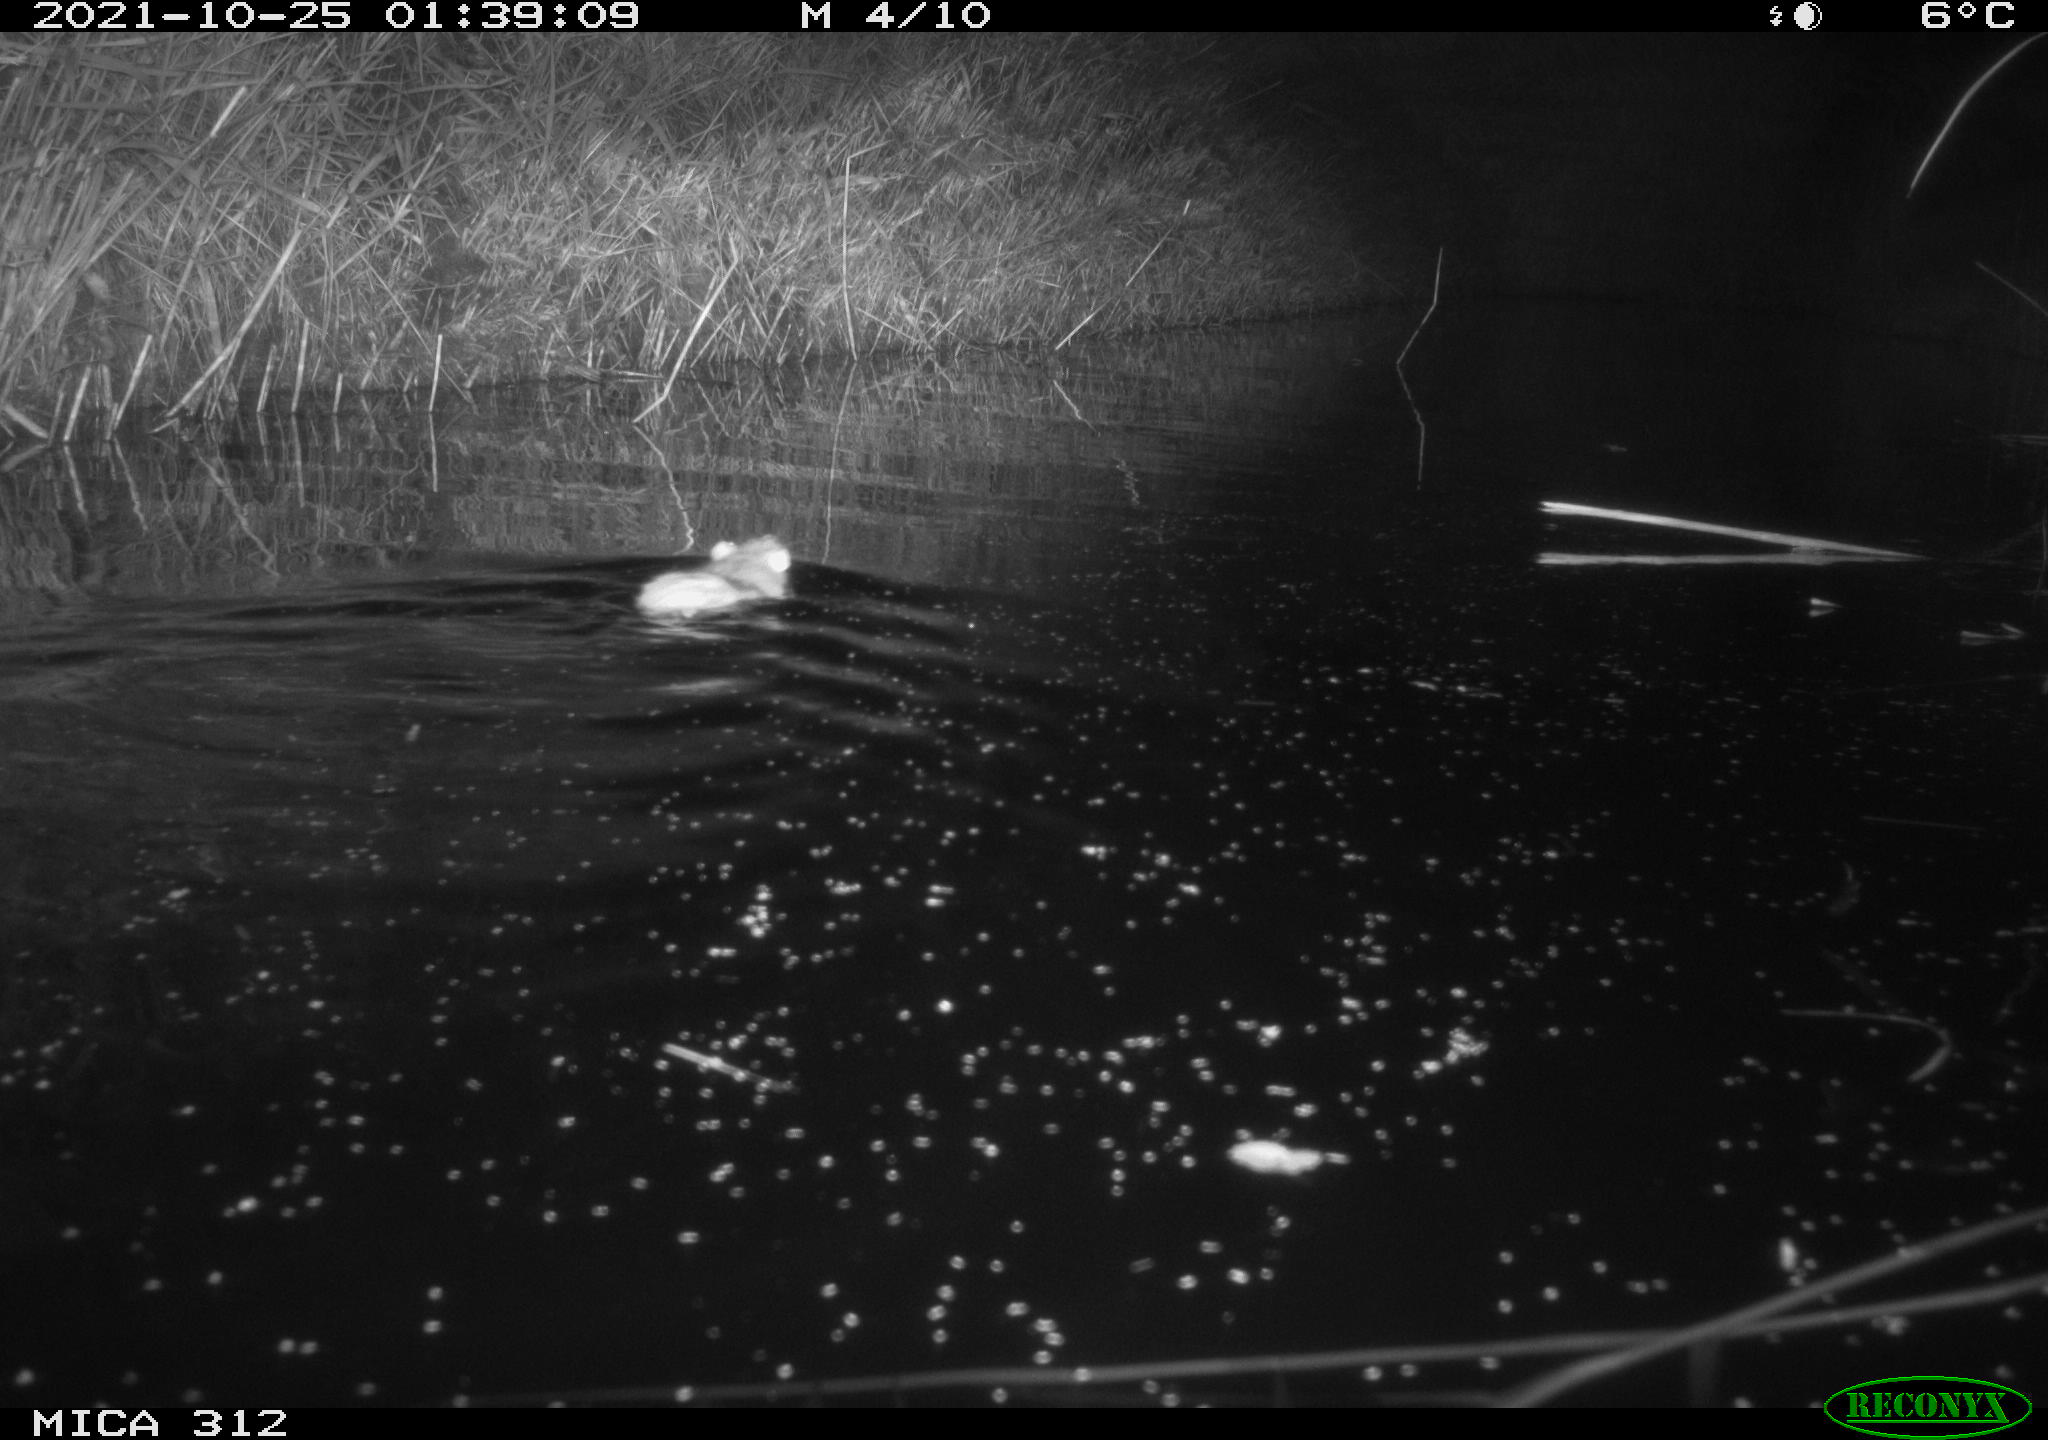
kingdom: Animalia
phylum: Chordata
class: Mammalia
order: Rodentia
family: Muridae
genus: Rattus
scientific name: Rattus norvegicus
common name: Brown rat
